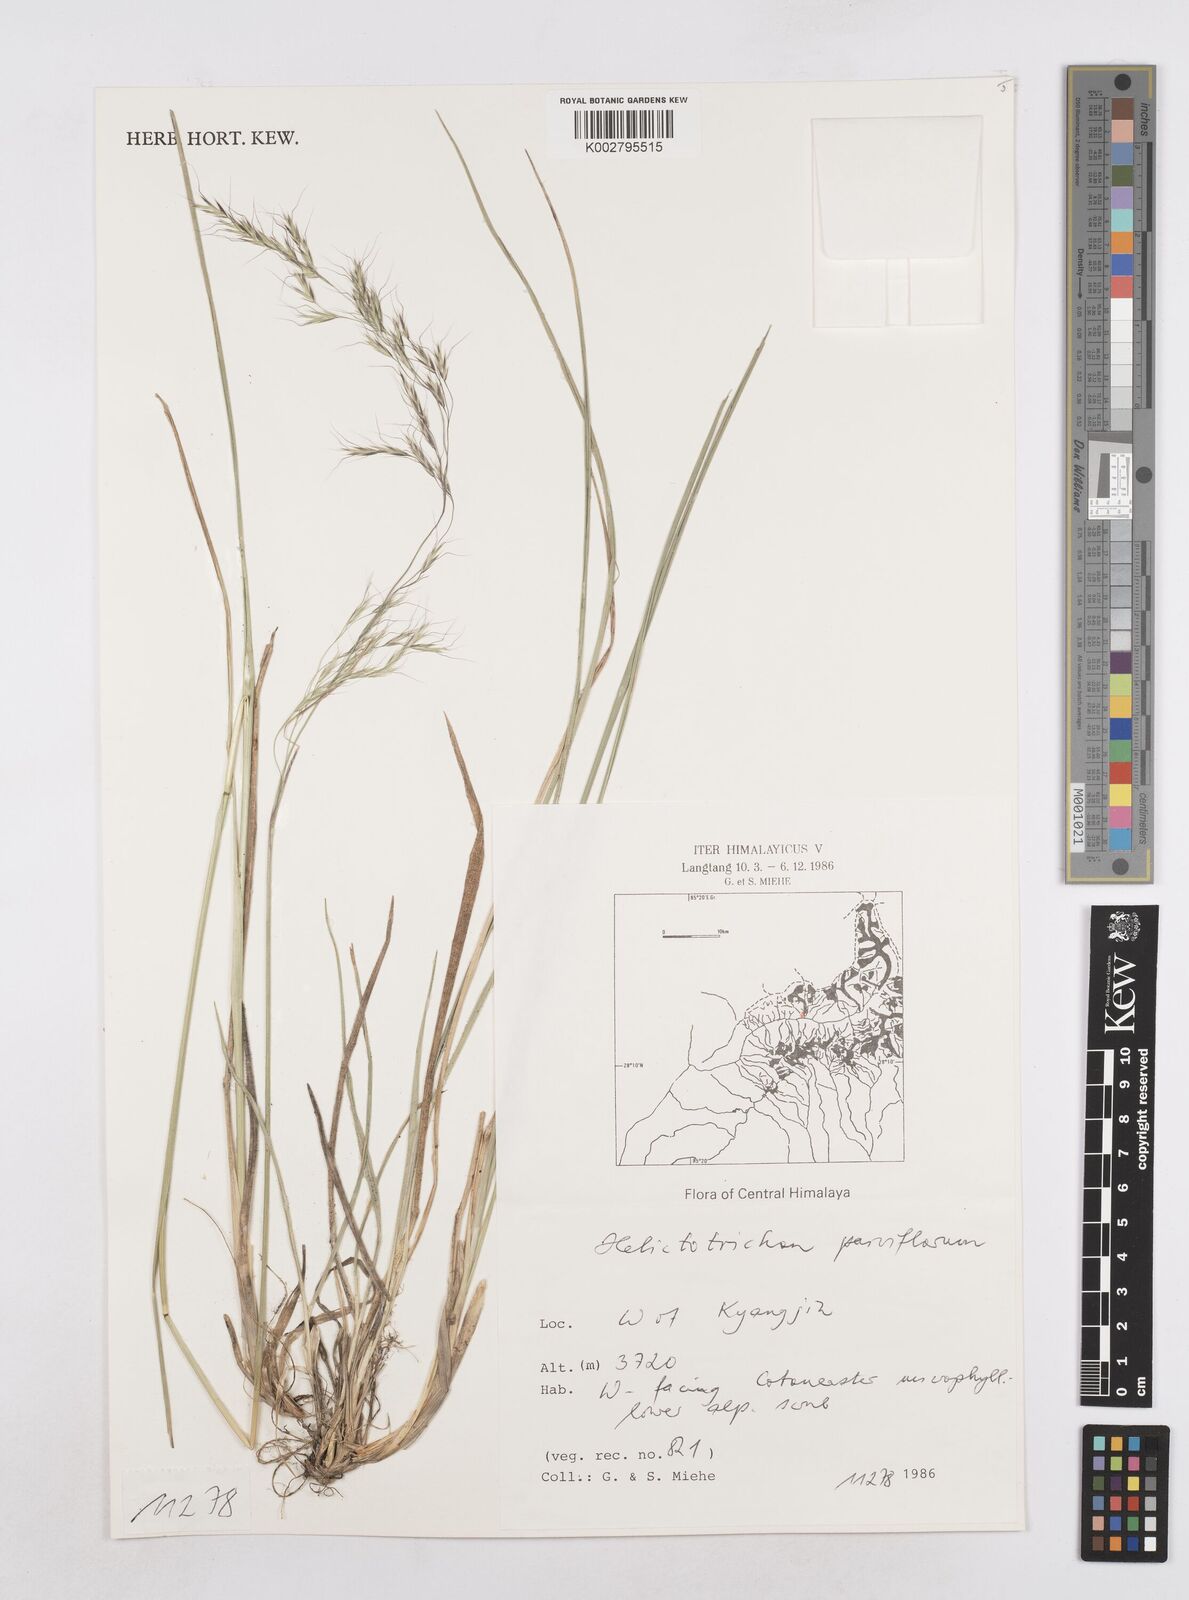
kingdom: Plantae
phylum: Tracheophyta
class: Liliopsida
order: Poales
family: Poaceae
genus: Trisetopsis
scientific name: Trisetopsis junghuhnii
